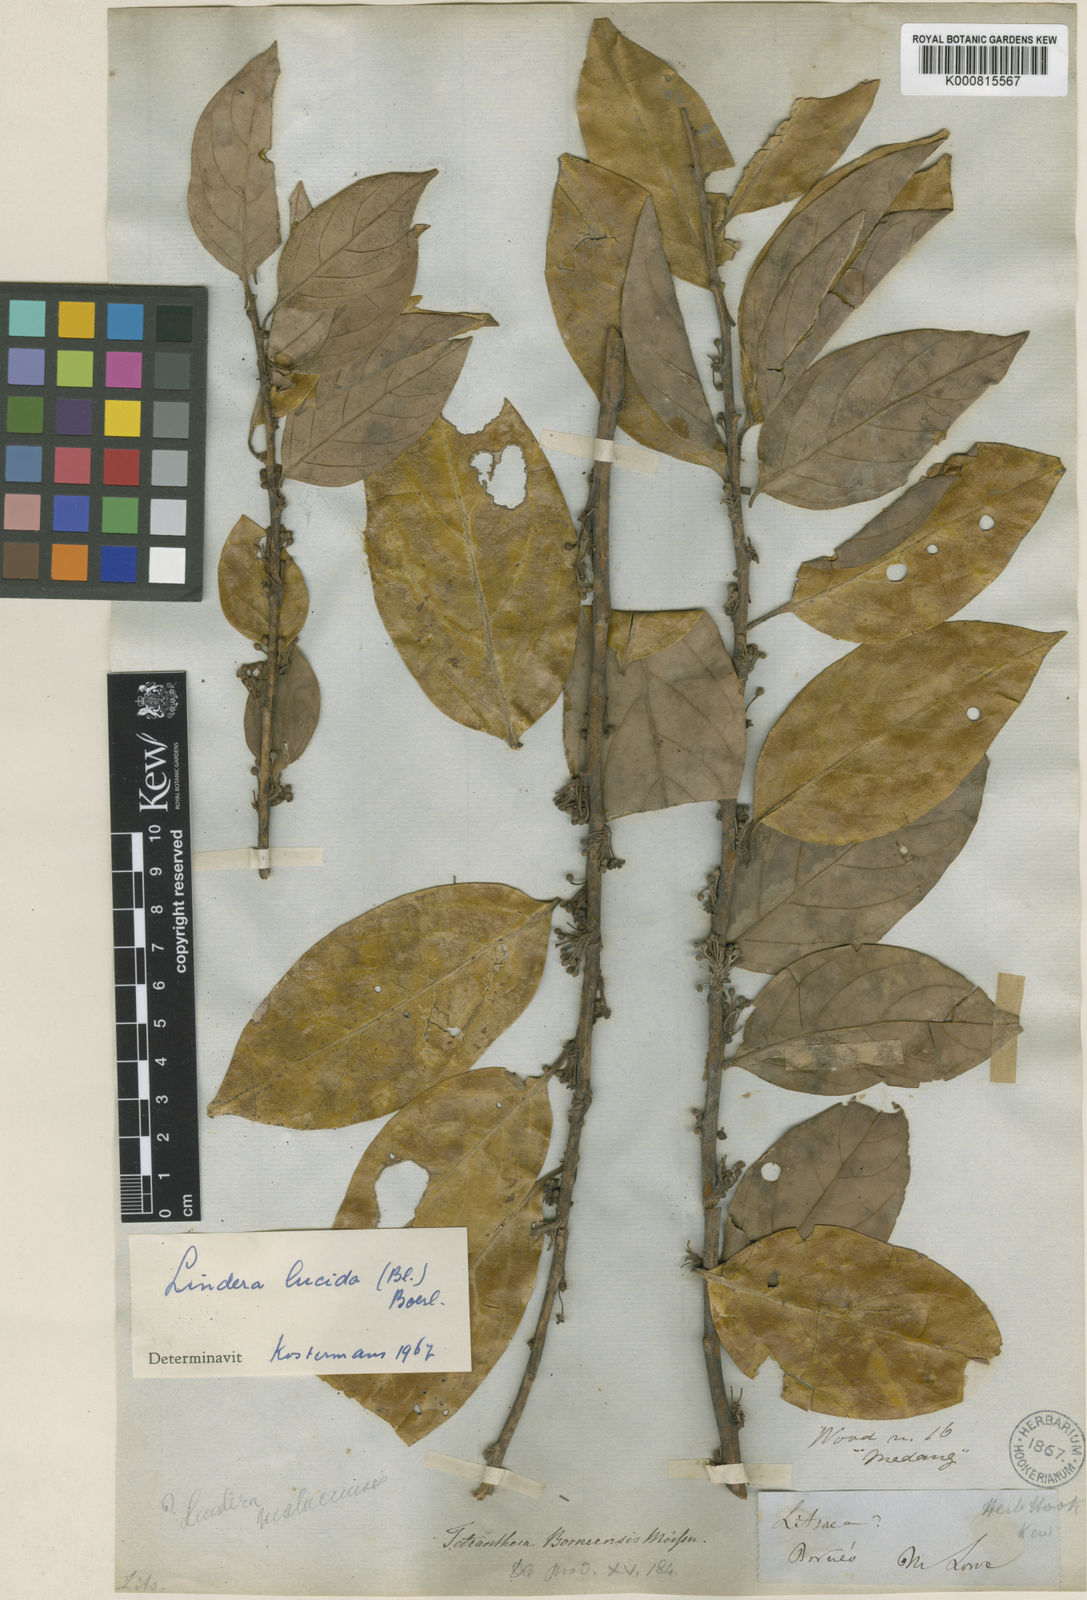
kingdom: Plantae
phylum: Tracheophyta
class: Magnoliopsida
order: Laurales
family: Lauraceae
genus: Lindera
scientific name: Lindera lucida
